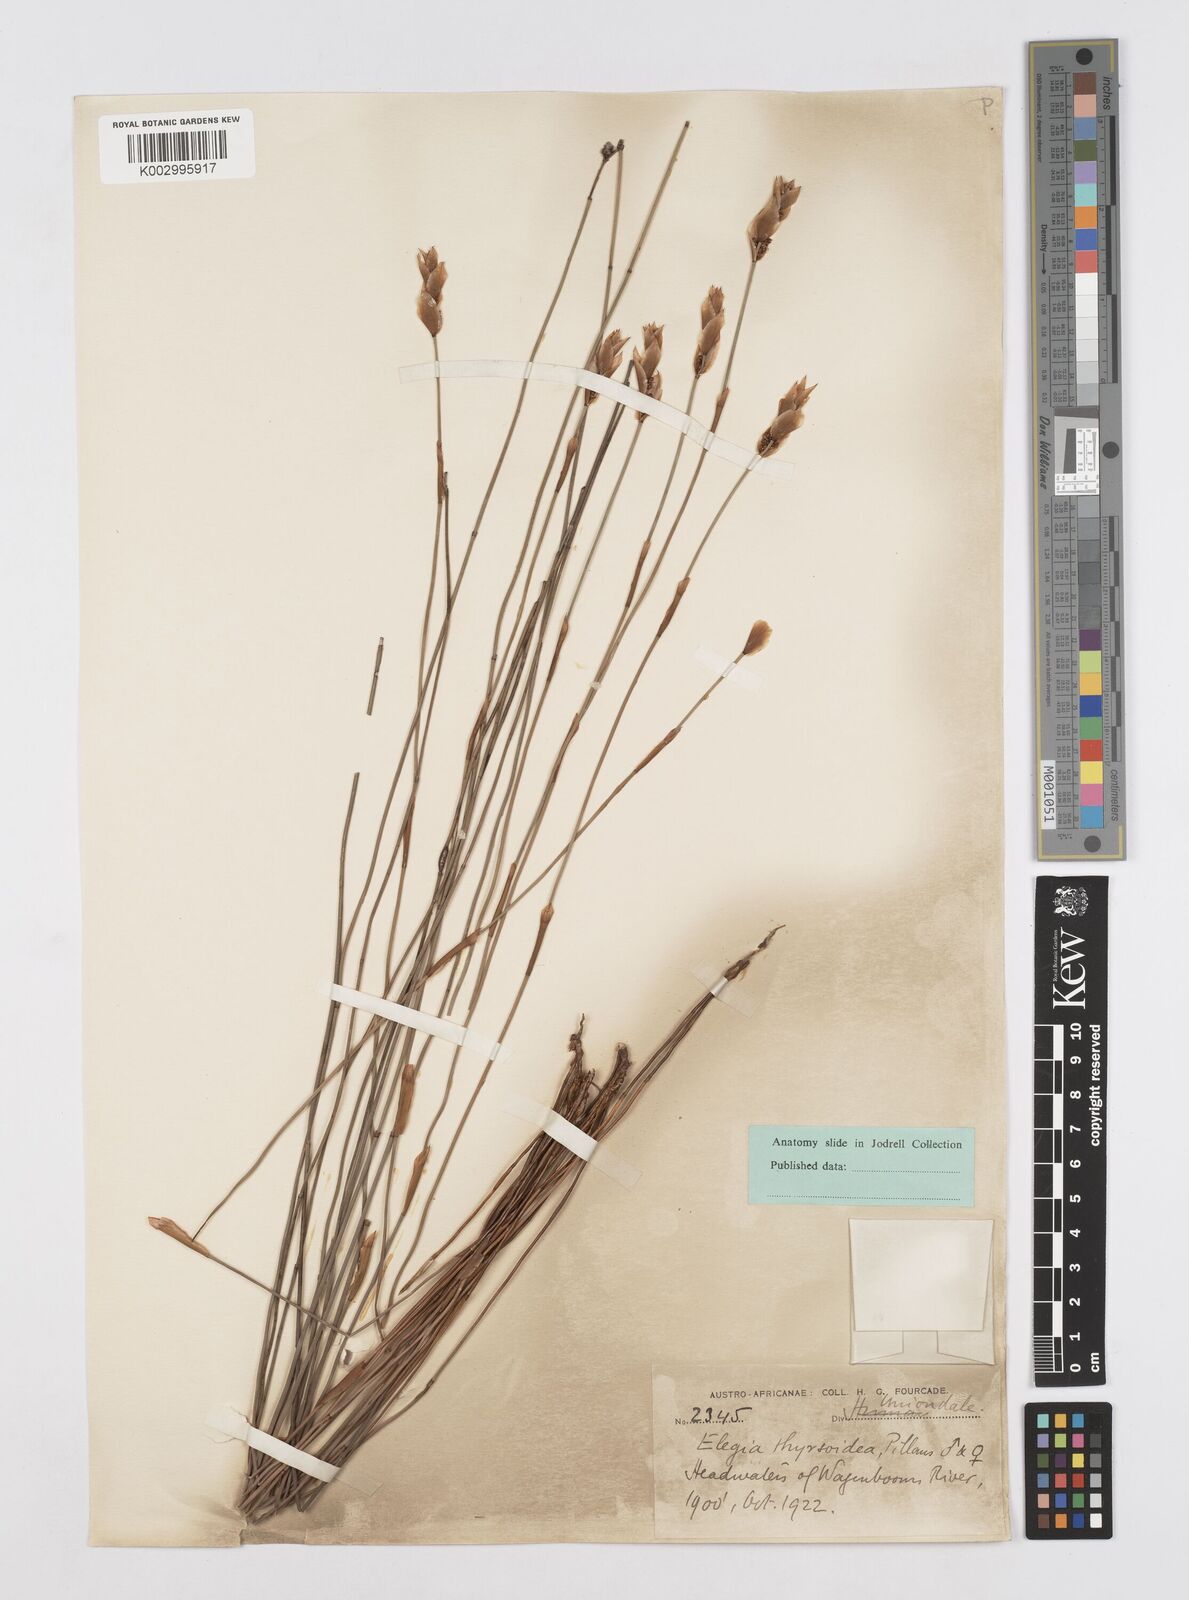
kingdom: Plantae
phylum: Tracheophyta
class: Liliopsida
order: Poales
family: Restionaceae
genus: Cannomois
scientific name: Cannomois parviflora
